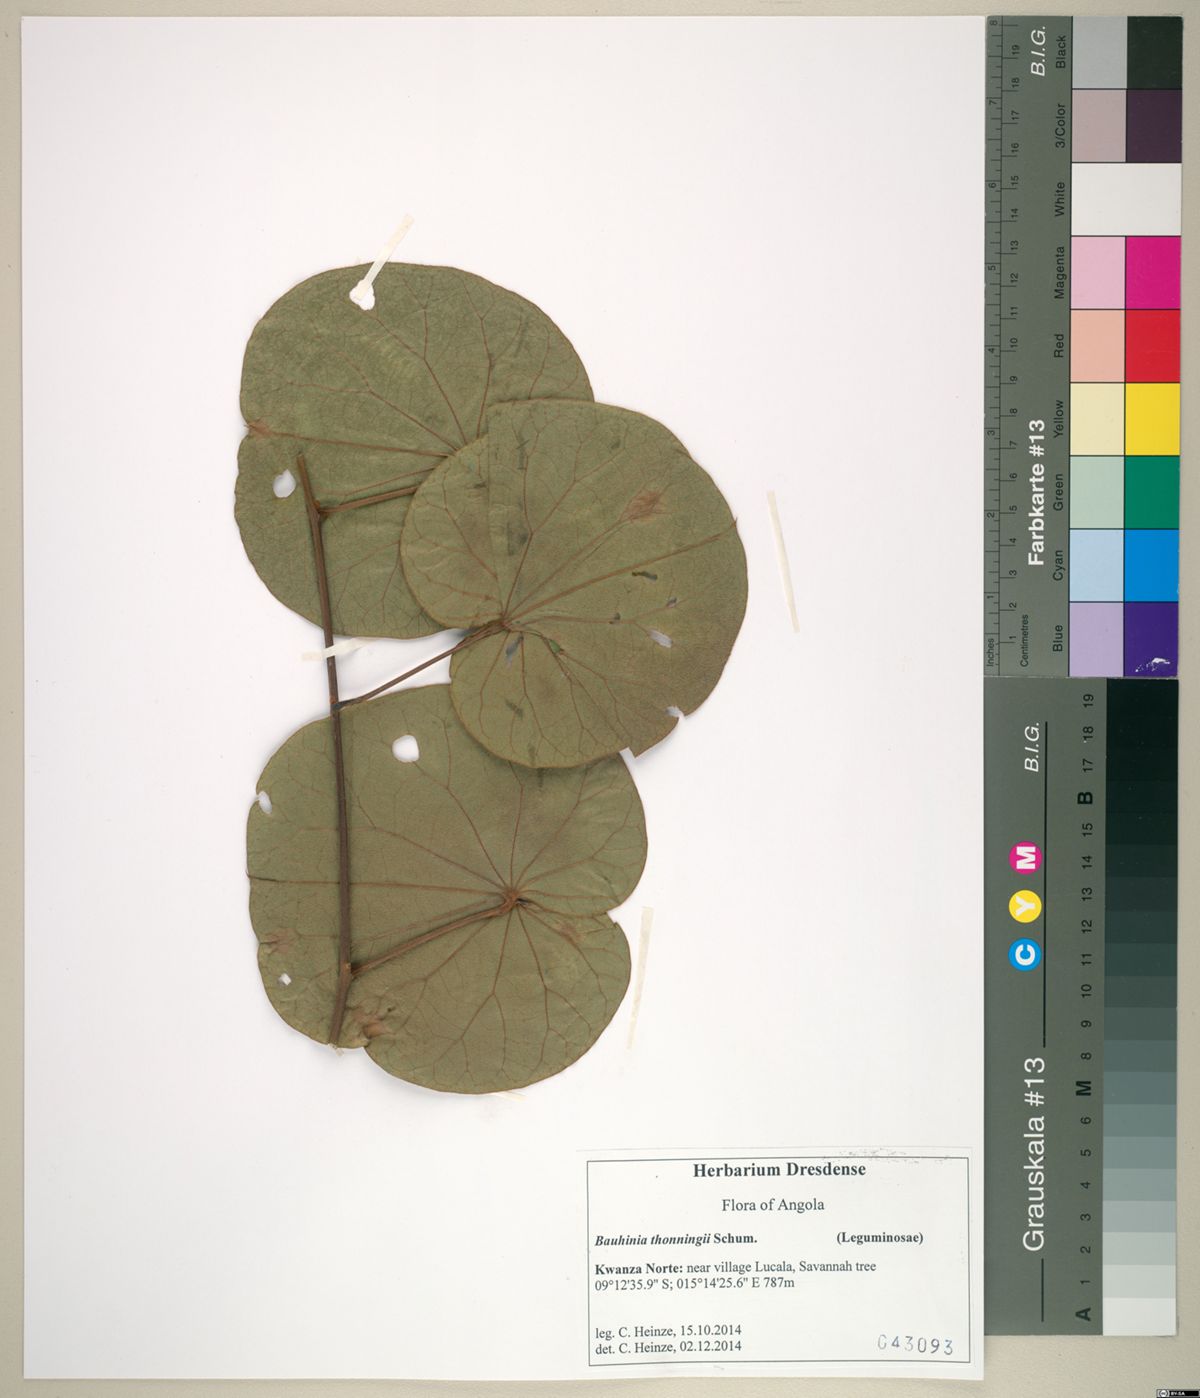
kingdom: Plantae
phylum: Tracheophyta
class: Magnoliopsida
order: Fabales
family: Fabaceae
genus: Piliostigma
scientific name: Piliostigma thonningii
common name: Kao
